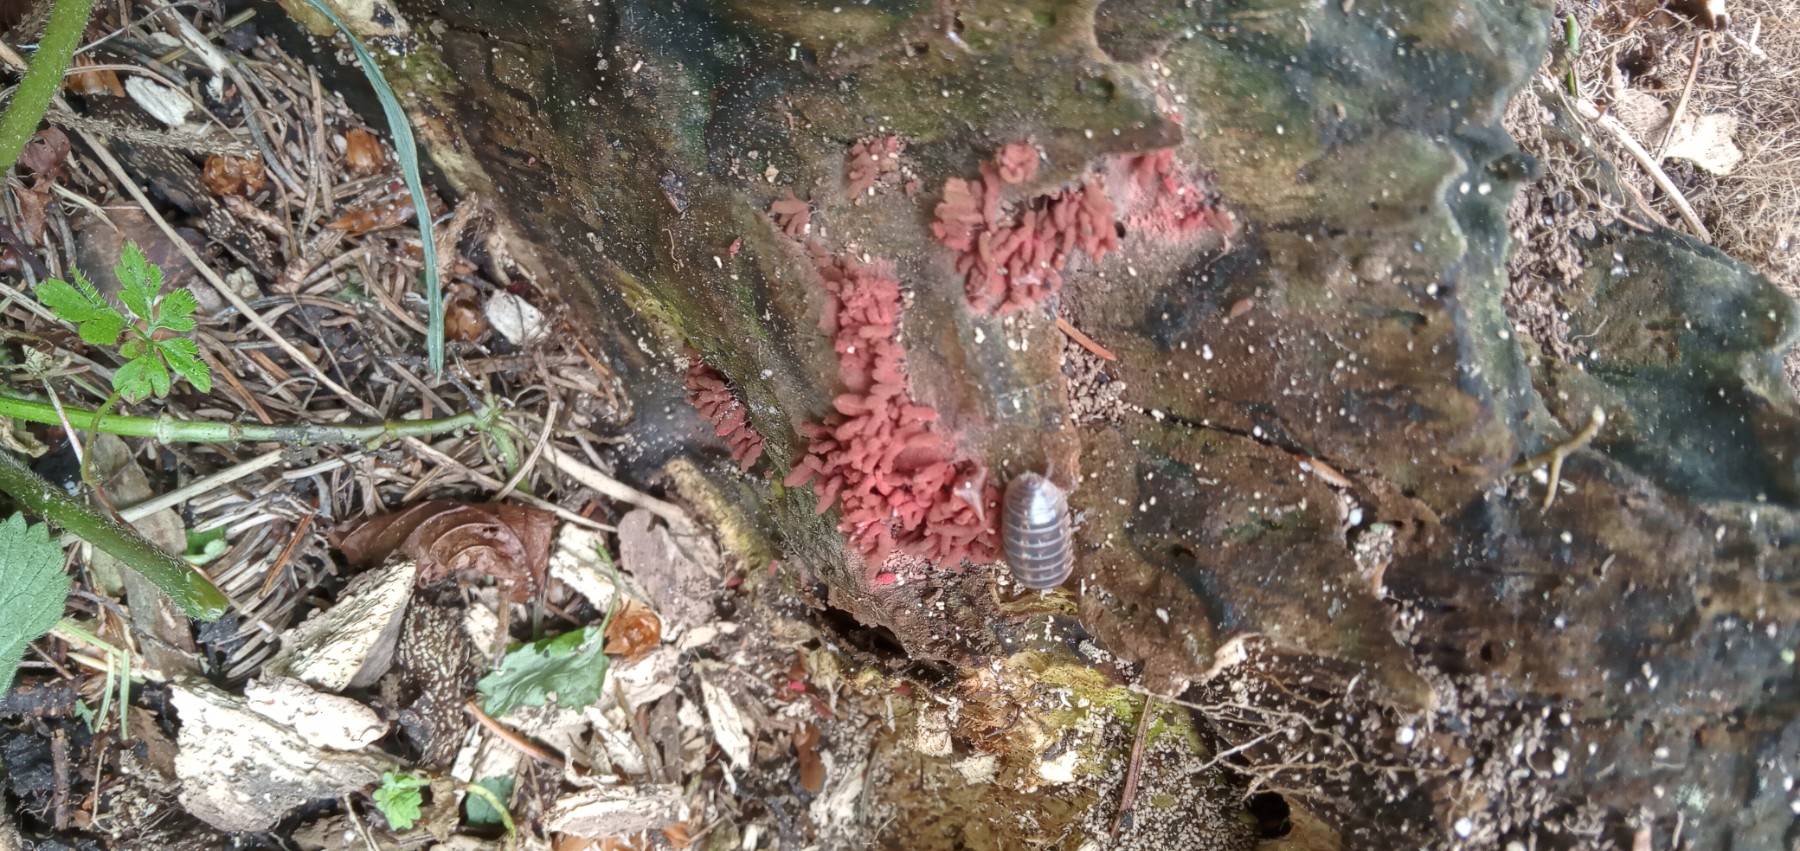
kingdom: Protozoa
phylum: Mycetozoa
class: Myxomycetes
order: Trichiales
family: Arcyriaceae
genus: Arcyria
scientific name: Arcyria denudata
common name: karminrød skålsvøb
